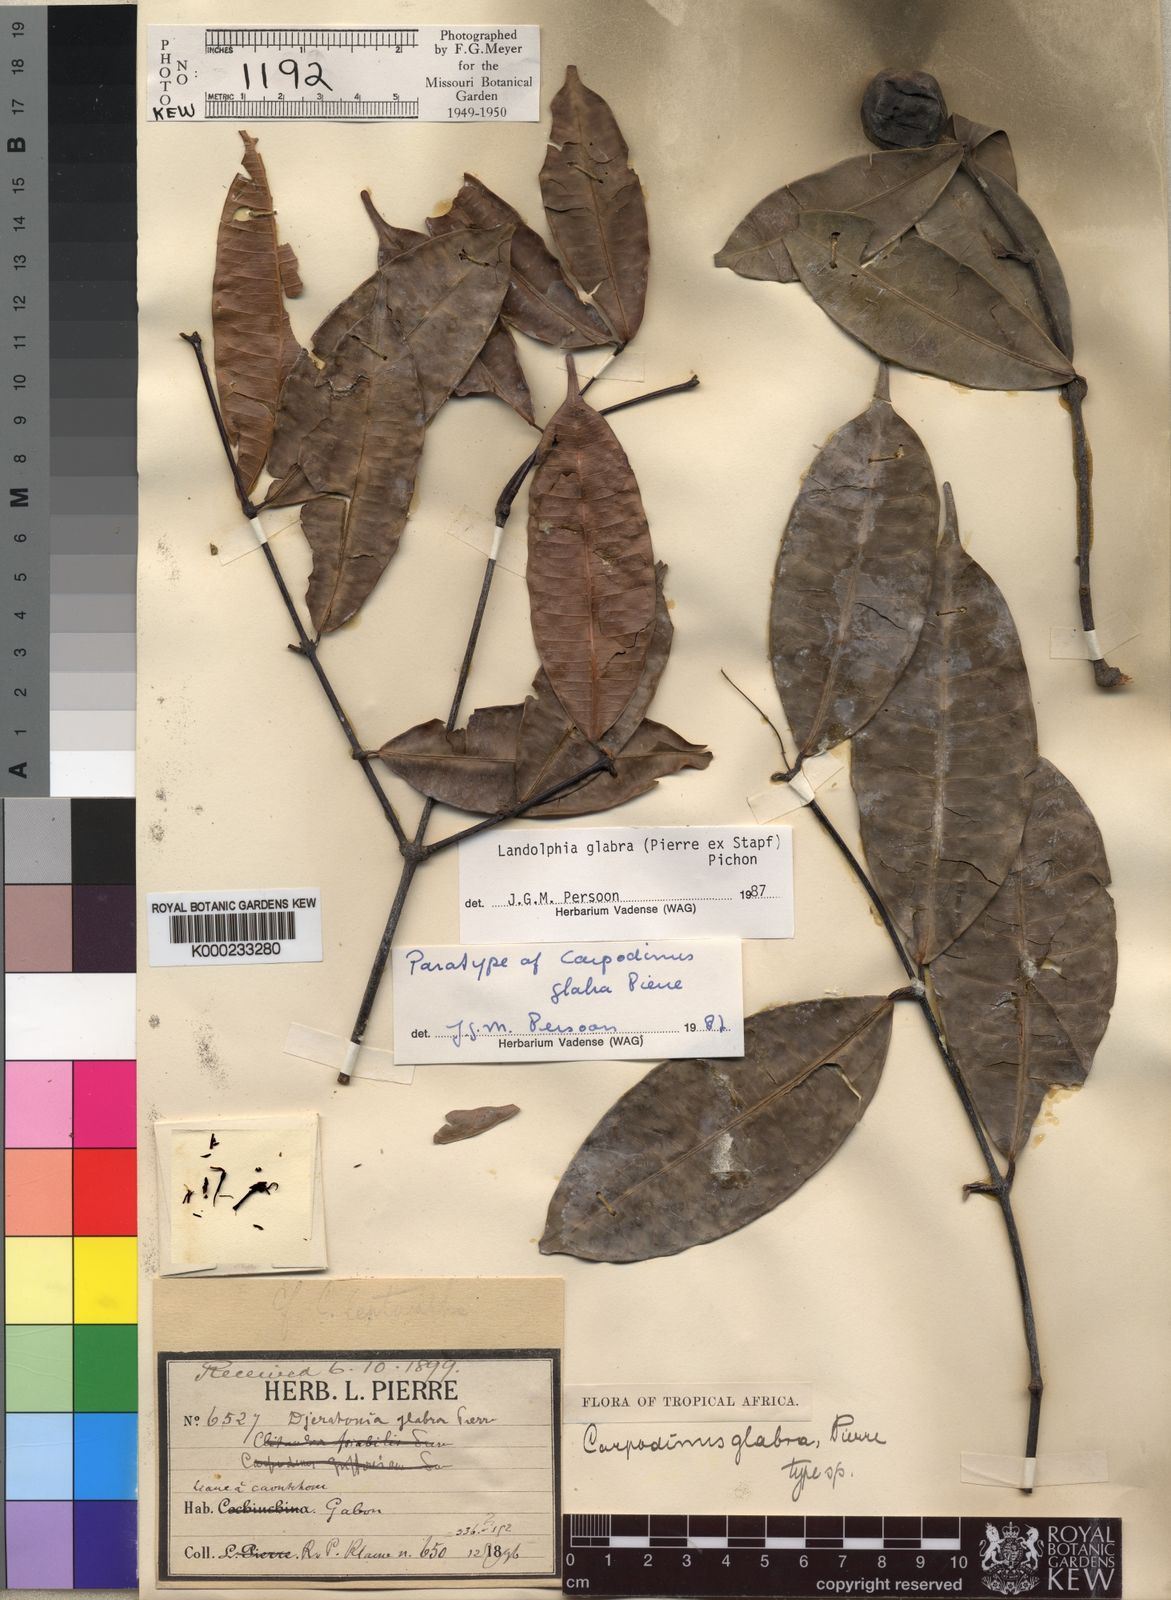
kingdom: Plantae
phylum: Tracheophyta
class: Magnoliopsida
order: Gentianales
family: Apocynaceae
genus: Landolphia
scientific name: Landolphia glabra
